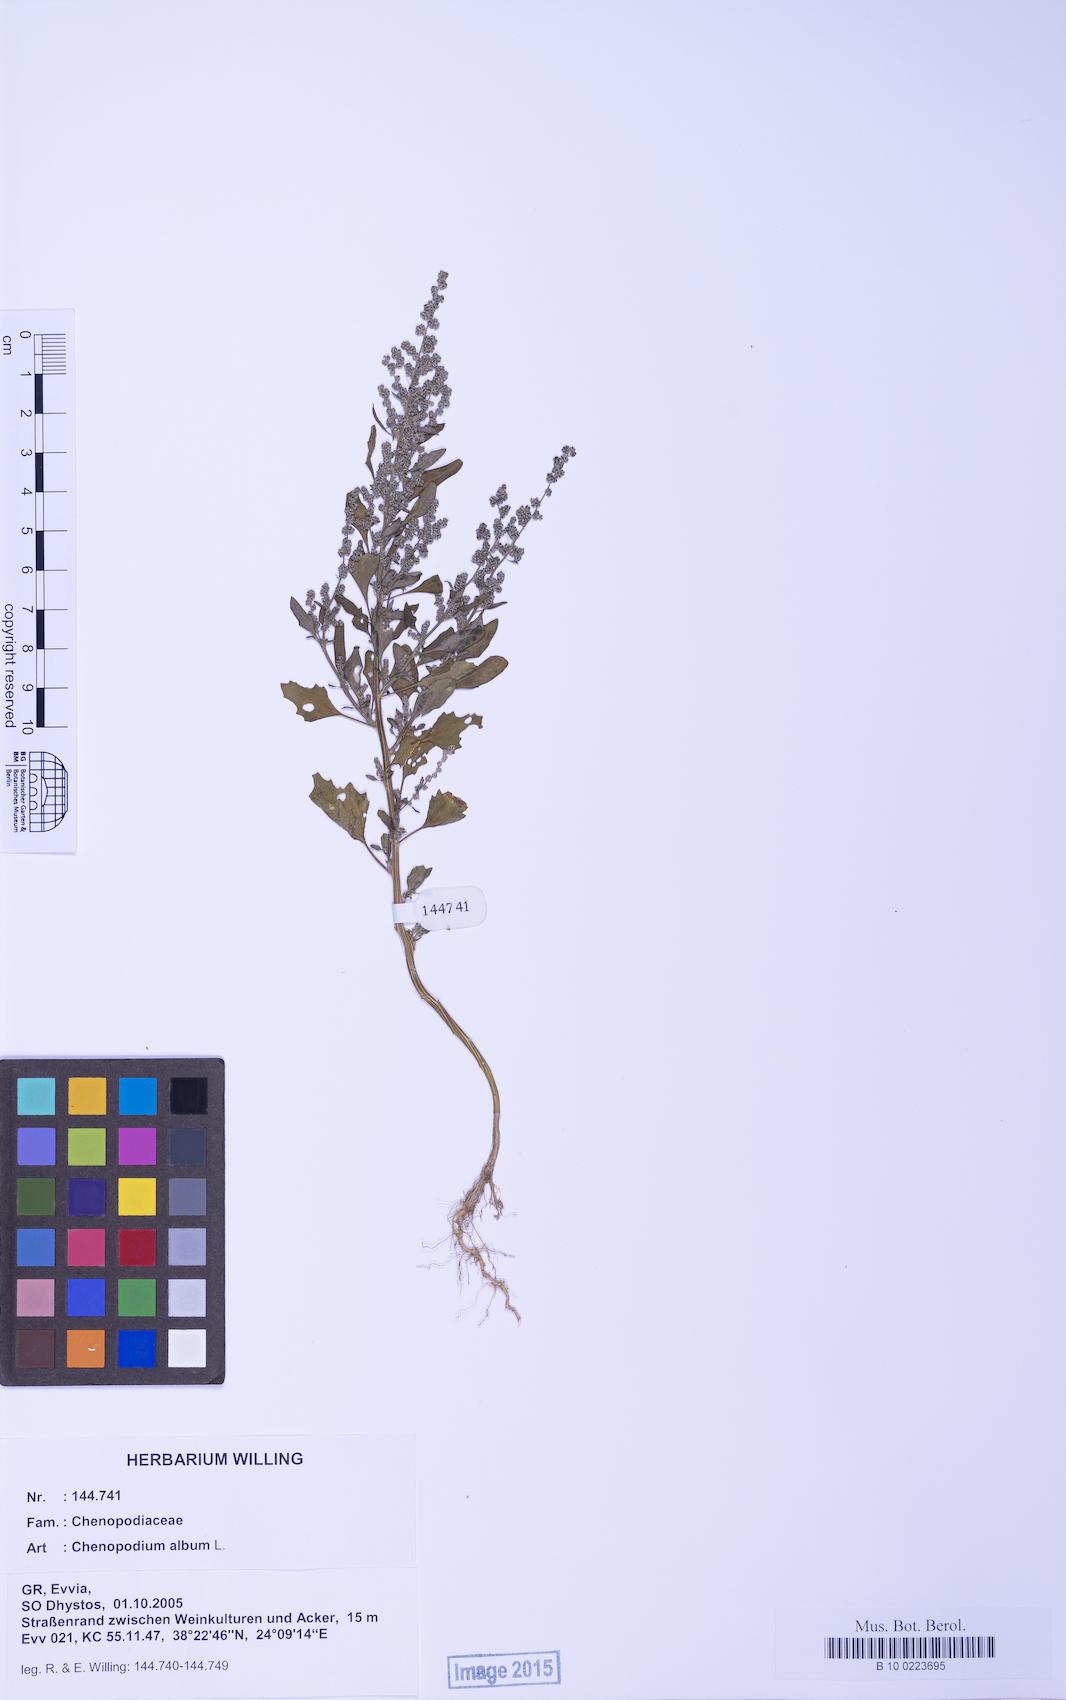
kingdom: Plantae
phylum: Tracheophyta
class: Magnoliopsida
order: Caryophyllales
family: Amaranthaceae
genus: Chenopodium
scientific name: Chenopodium album
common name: Fat-hen
